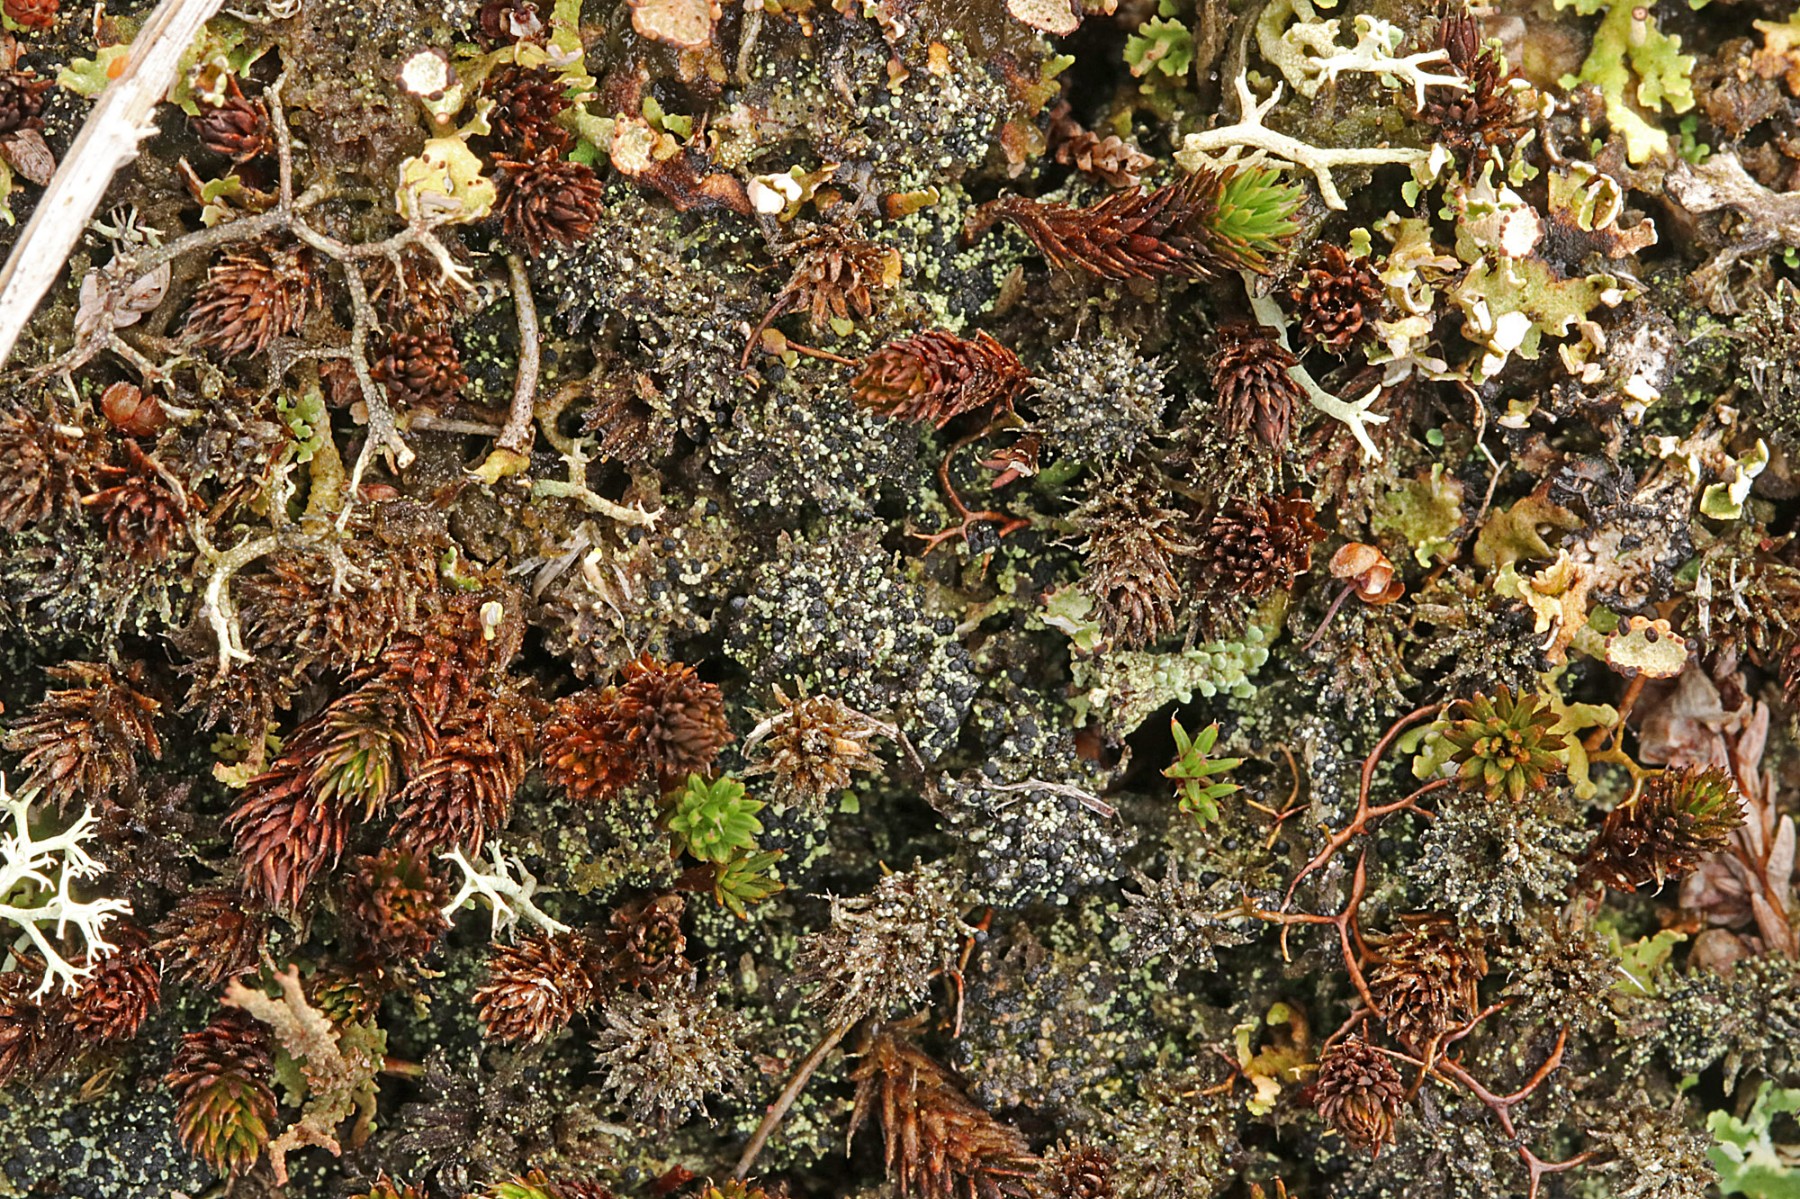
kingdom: Fungi
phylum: Ascomycota
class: Lecanoromycetes
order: Lecanorales
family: Byssolomataceae
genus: Micarea
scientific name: Micarea lignaria
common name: tørve-knaplav
